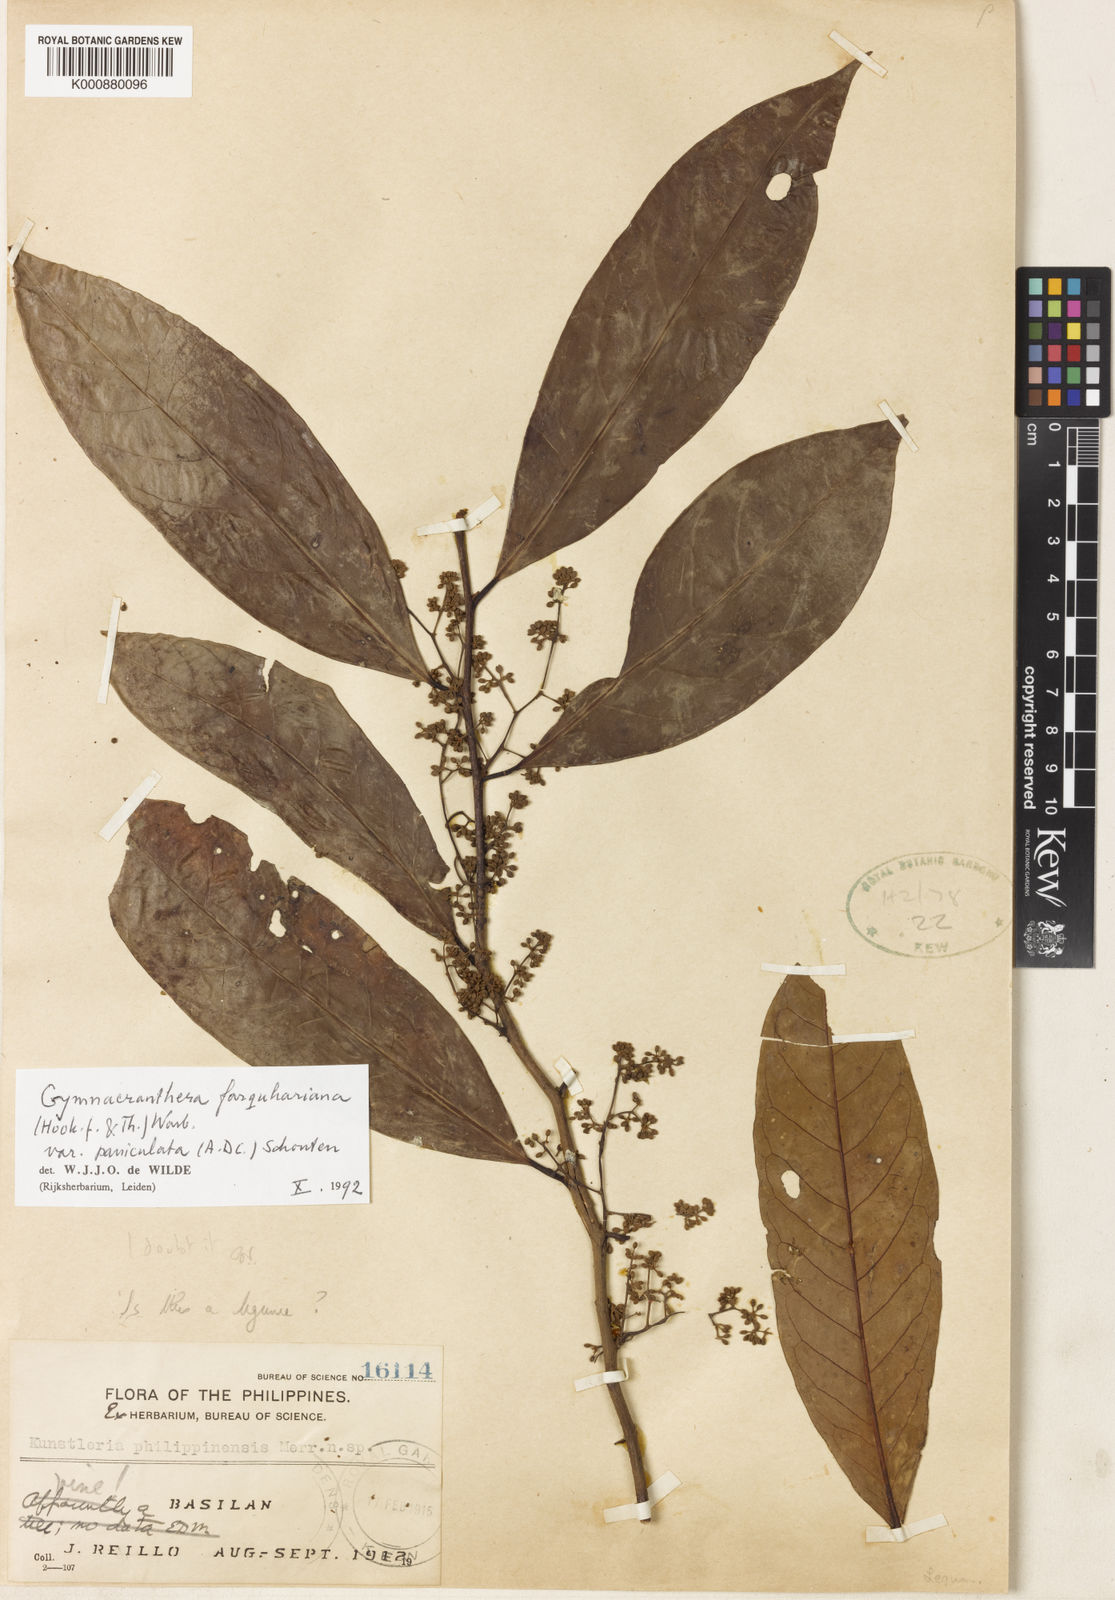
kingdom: Plantae
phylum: Tracheophyta
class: Magnoliopsida
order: Magnoliales
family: Myristicaceae
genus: Gymnacranthera
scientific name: Gymnacranthera farquhariana
